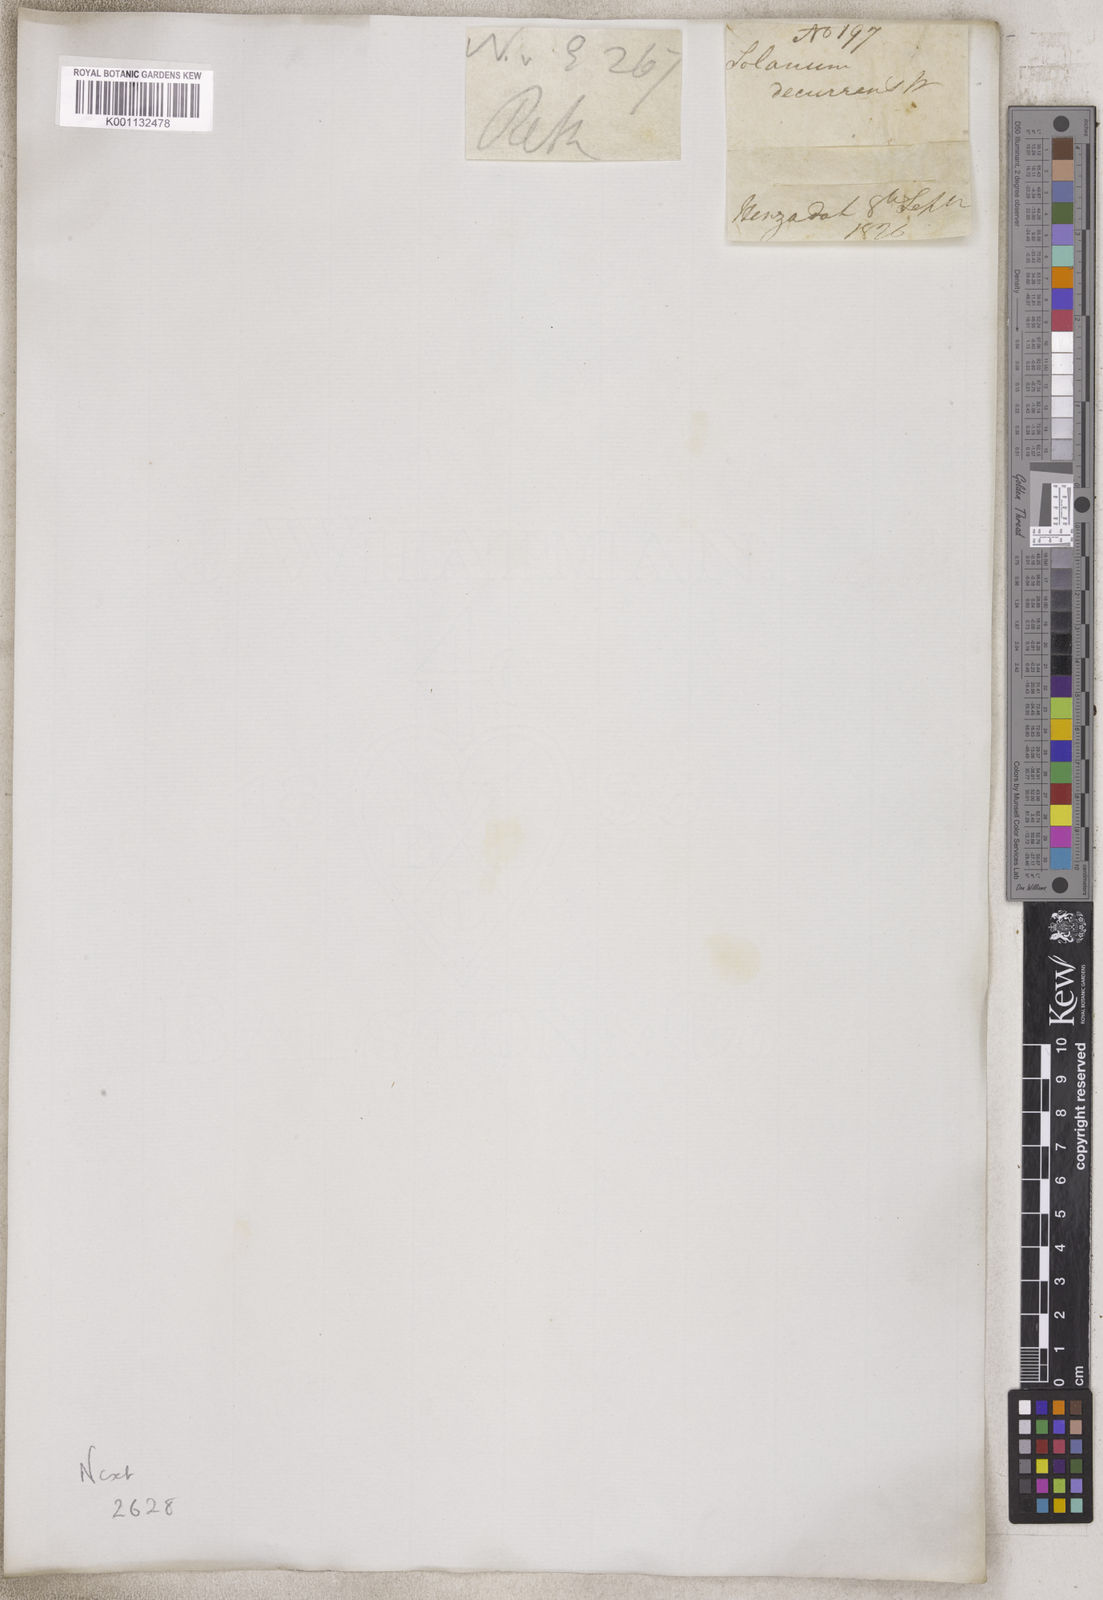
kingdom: Plantae
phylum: Tracheophyta
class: Magnoliopsida
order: Solanales
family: Solanaceae
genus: Solanum
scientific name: Solanum
